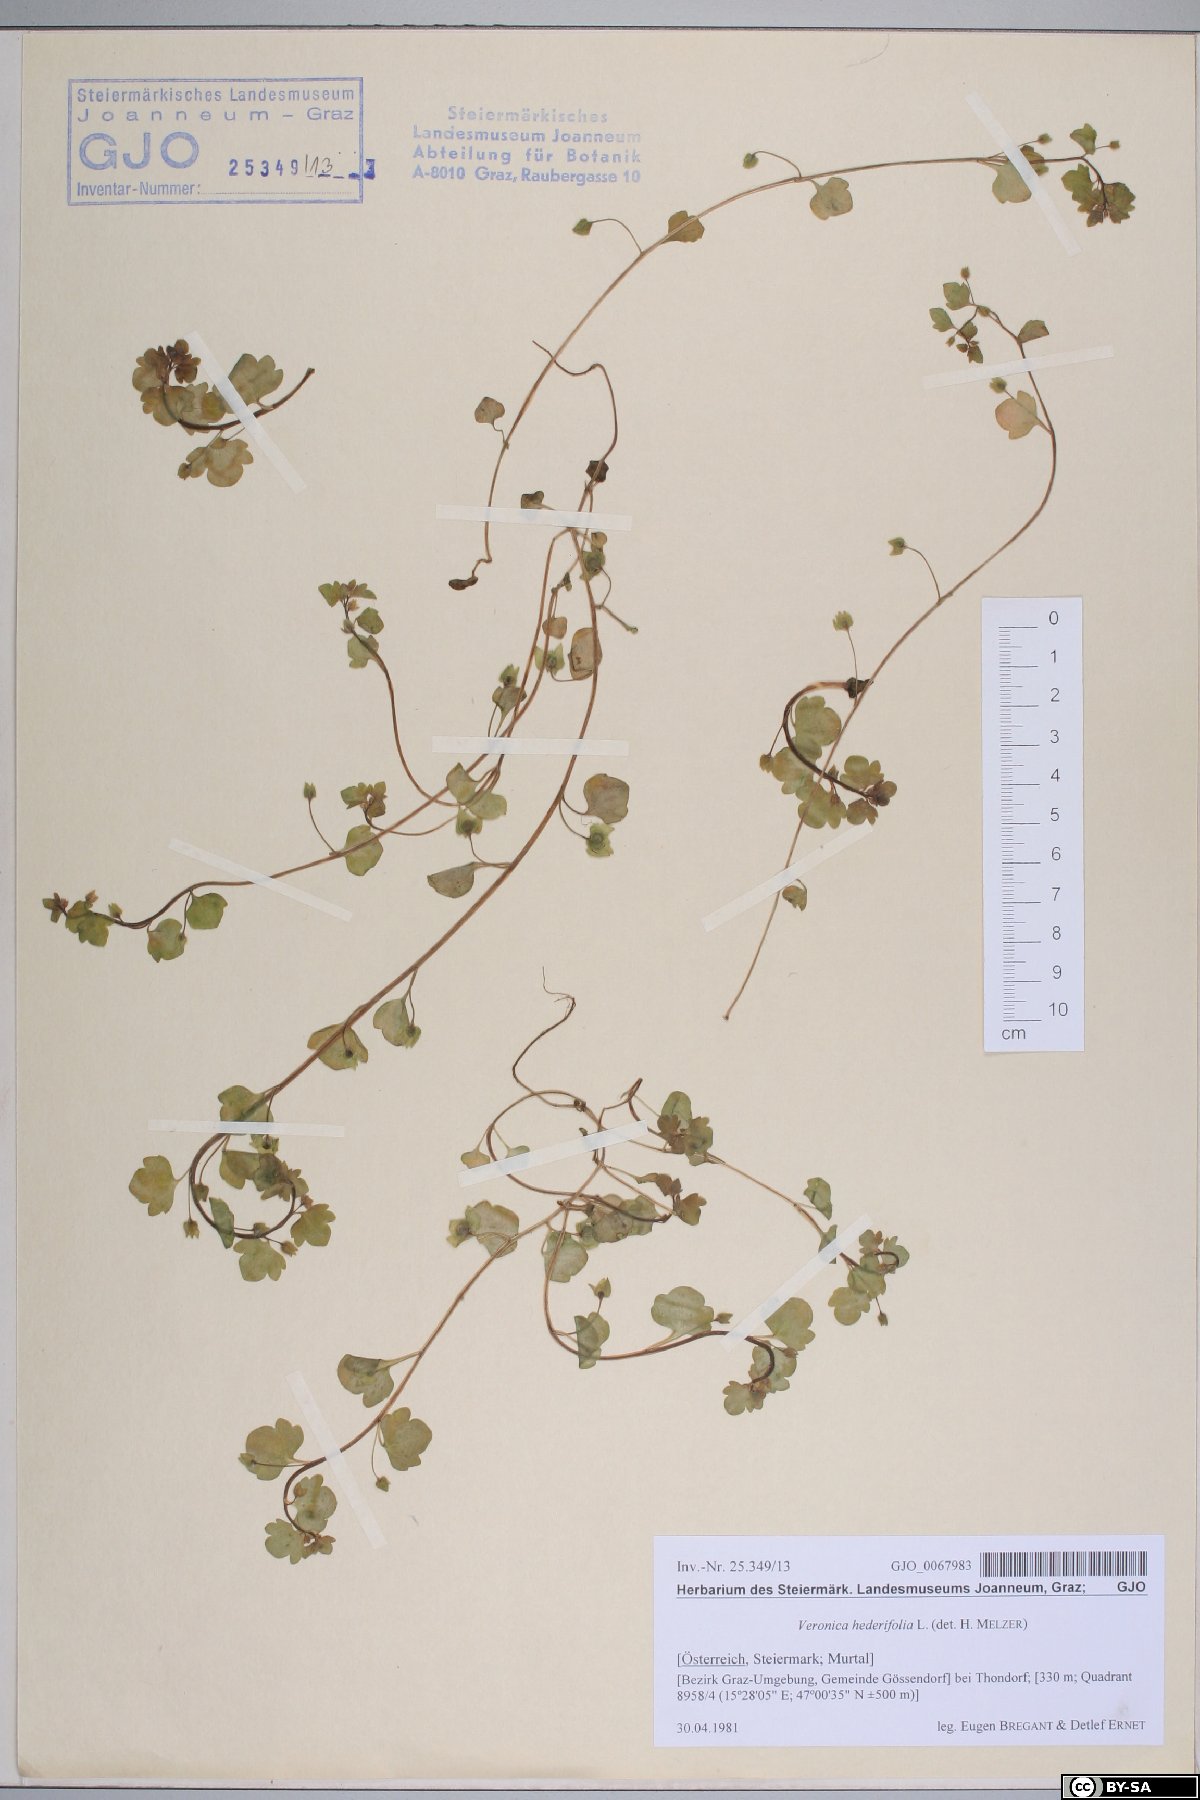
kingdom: Plantae
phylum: Tracheophyta
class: Magnoliopsida
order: Lamiales
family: Plantaginaceae
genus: Veronica
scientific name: Veronica hederifolia
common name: Ivy-leaved speedwell
